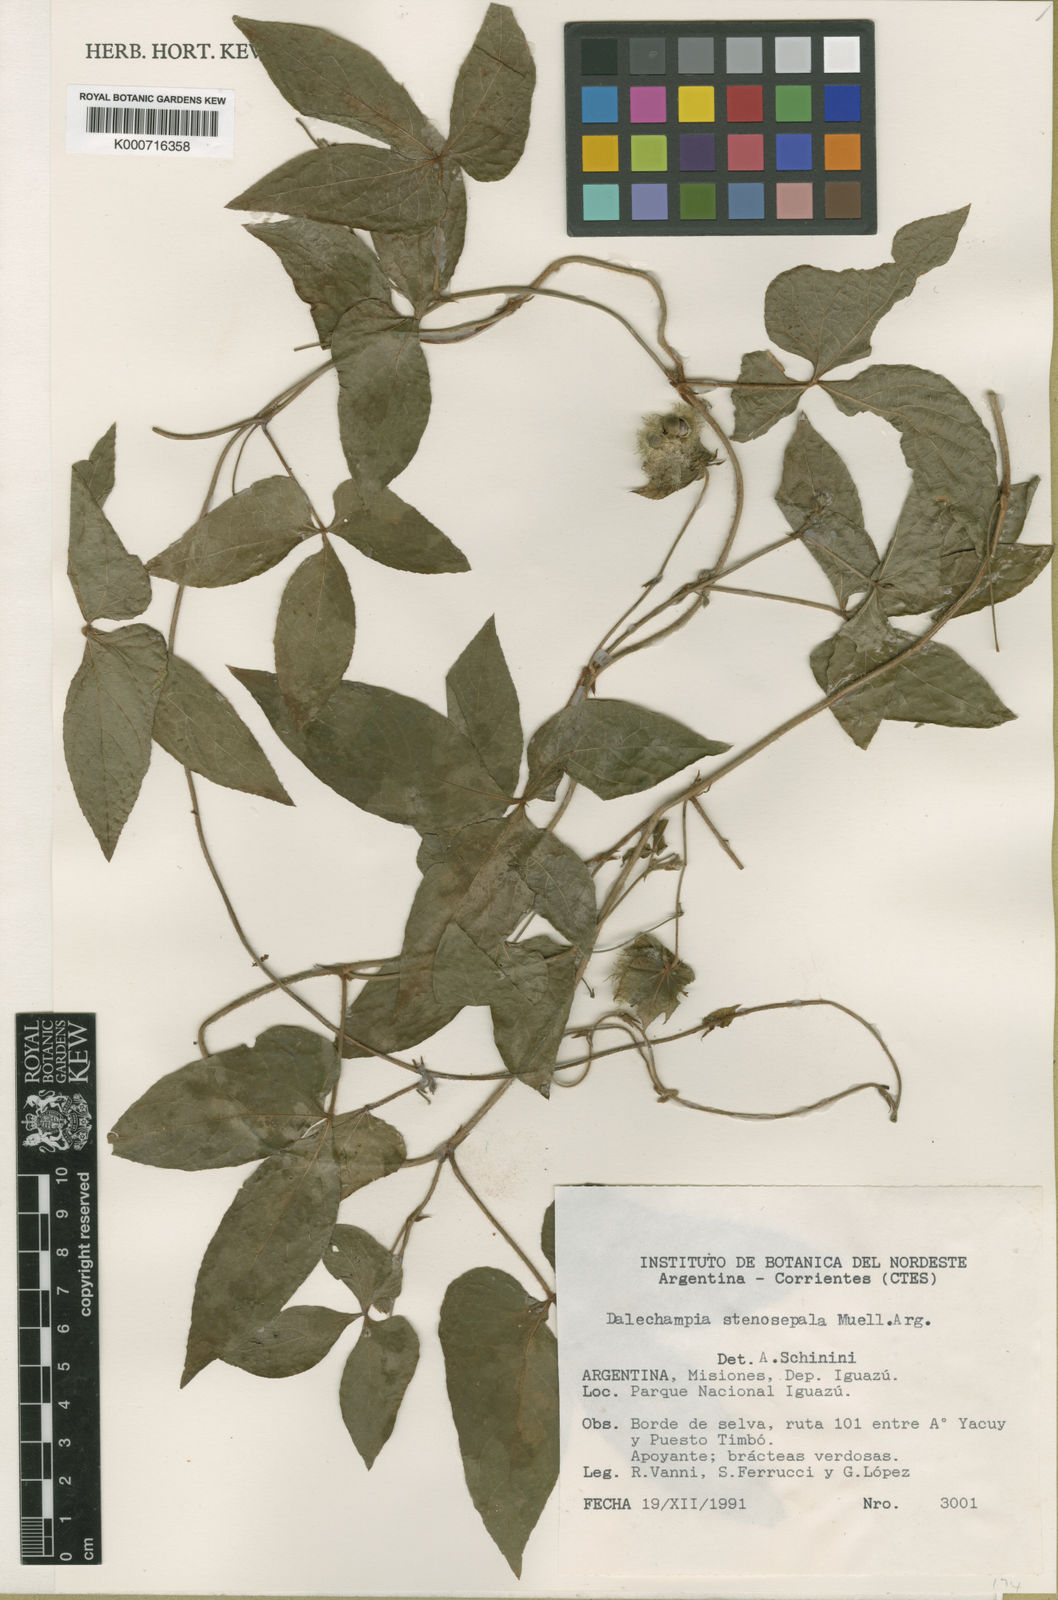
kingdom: Plantae
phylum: Tracheophyta
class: Magnoliopsida
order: Malpighiales
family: Euphorbiaceae
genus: Dalechampia
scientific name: Dalechampia
